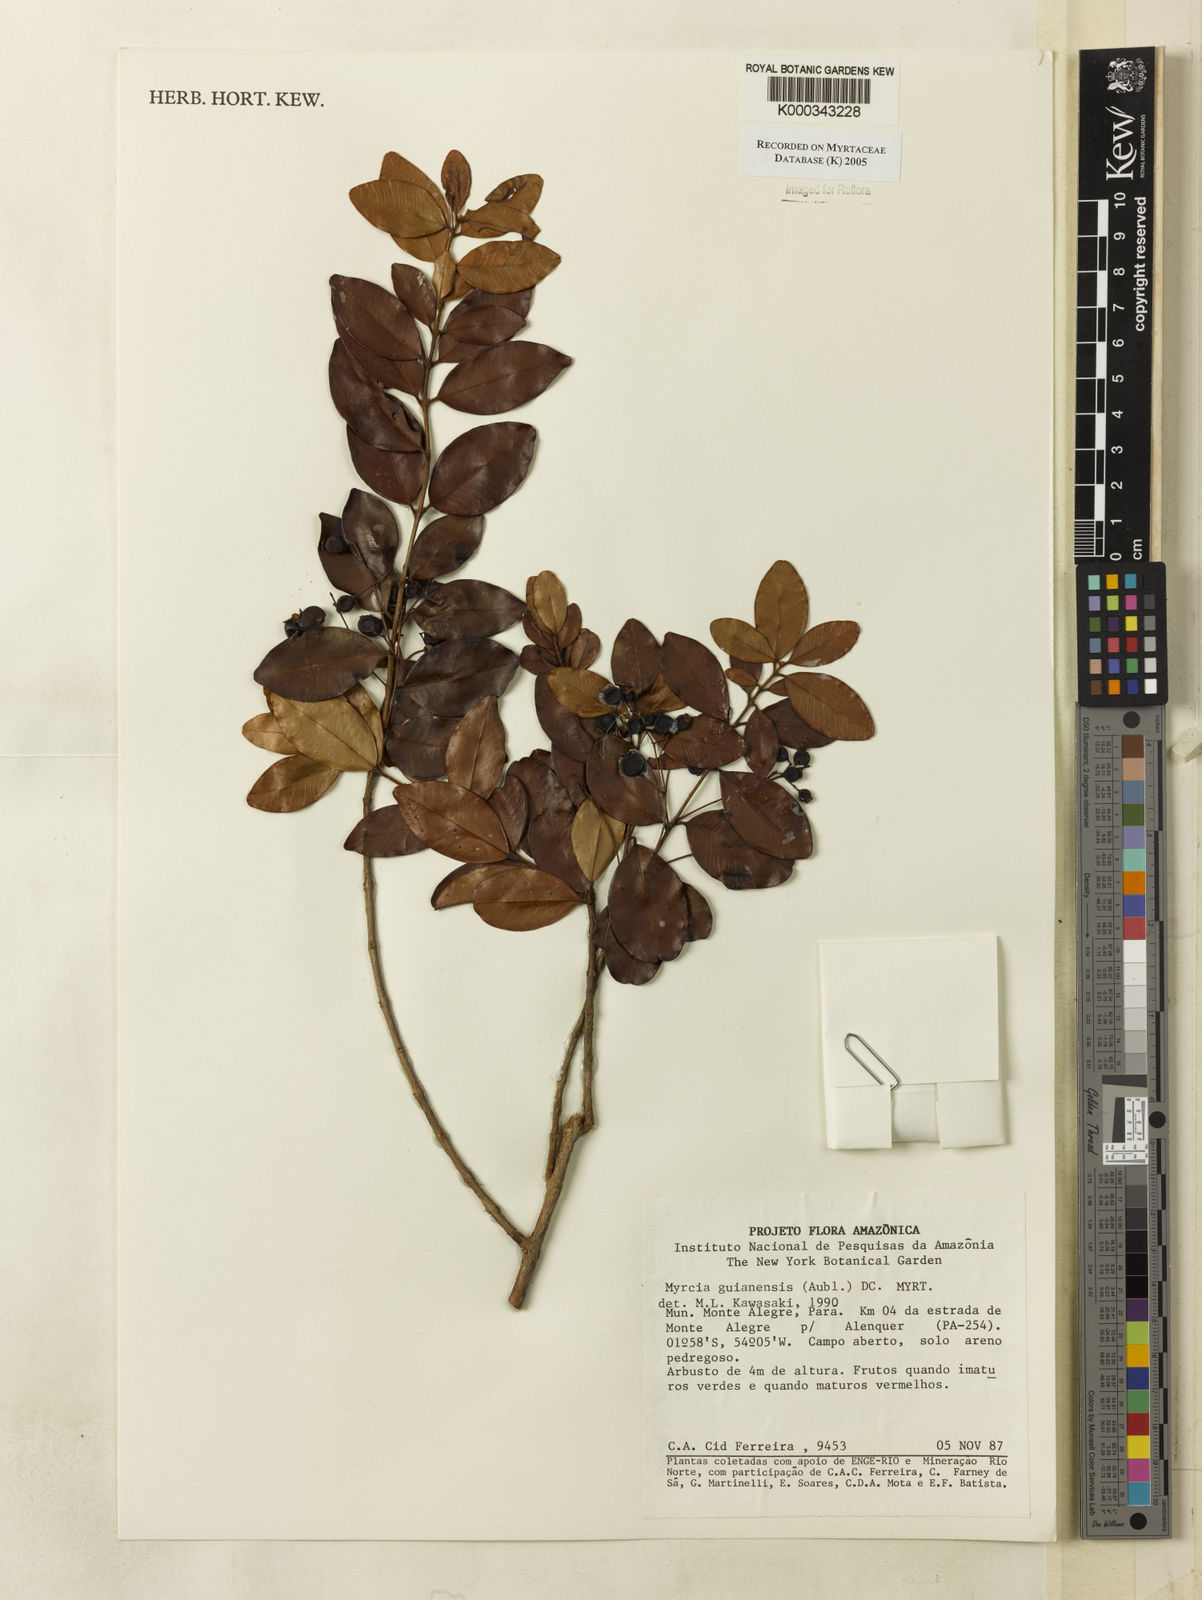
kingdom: Plantae
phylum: Tracheophyta
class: Magnoliopsida
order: Myrtales
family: Myrtaceae
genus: Myrcia
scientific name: Myrcia guianensis
